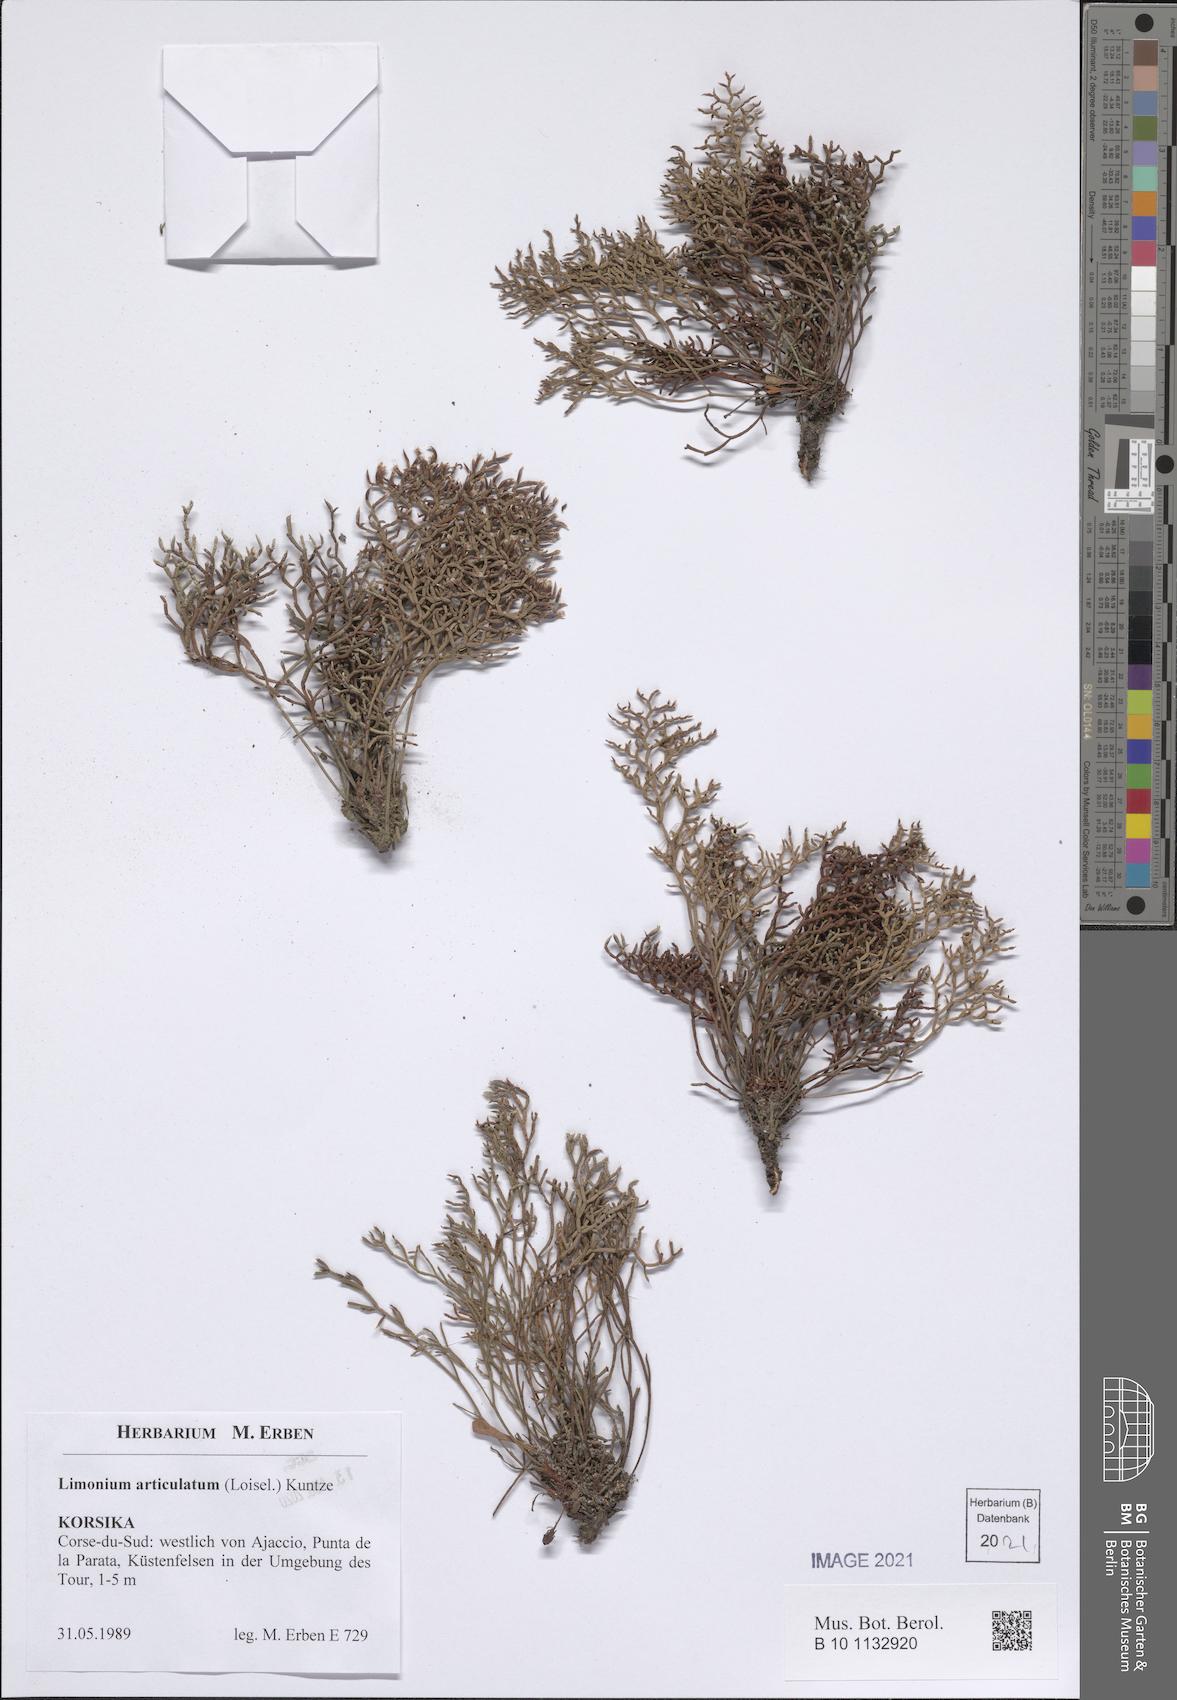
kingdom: Plantae
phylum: Tracheophyta
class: Magnoliopsida
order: Caryophyllales
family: Plumbaginaceae
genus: Limonium
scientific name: Limonium articulatum
